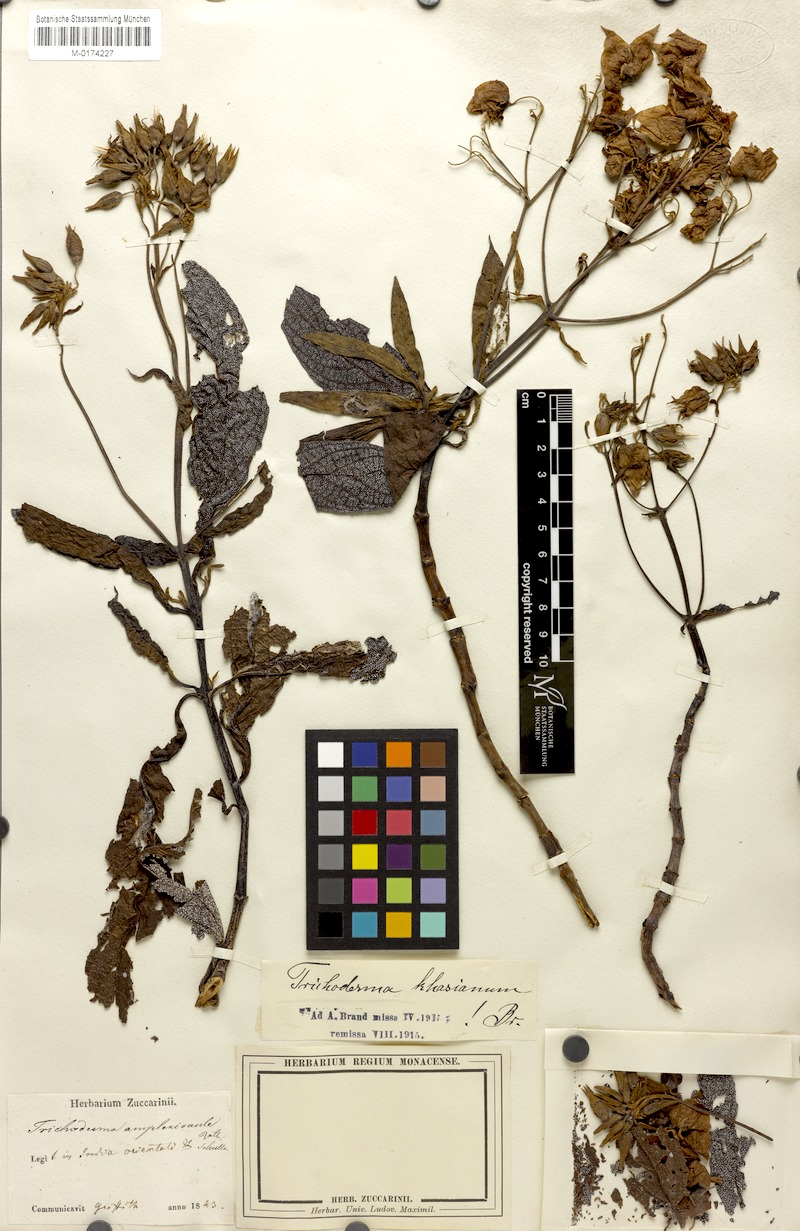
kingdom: Plantae
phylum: Tracheophyta
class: Magnoliopsida
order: Boraginales
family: Boraginaceae
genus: Trichodesma
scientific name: Trichodesma khasianum
